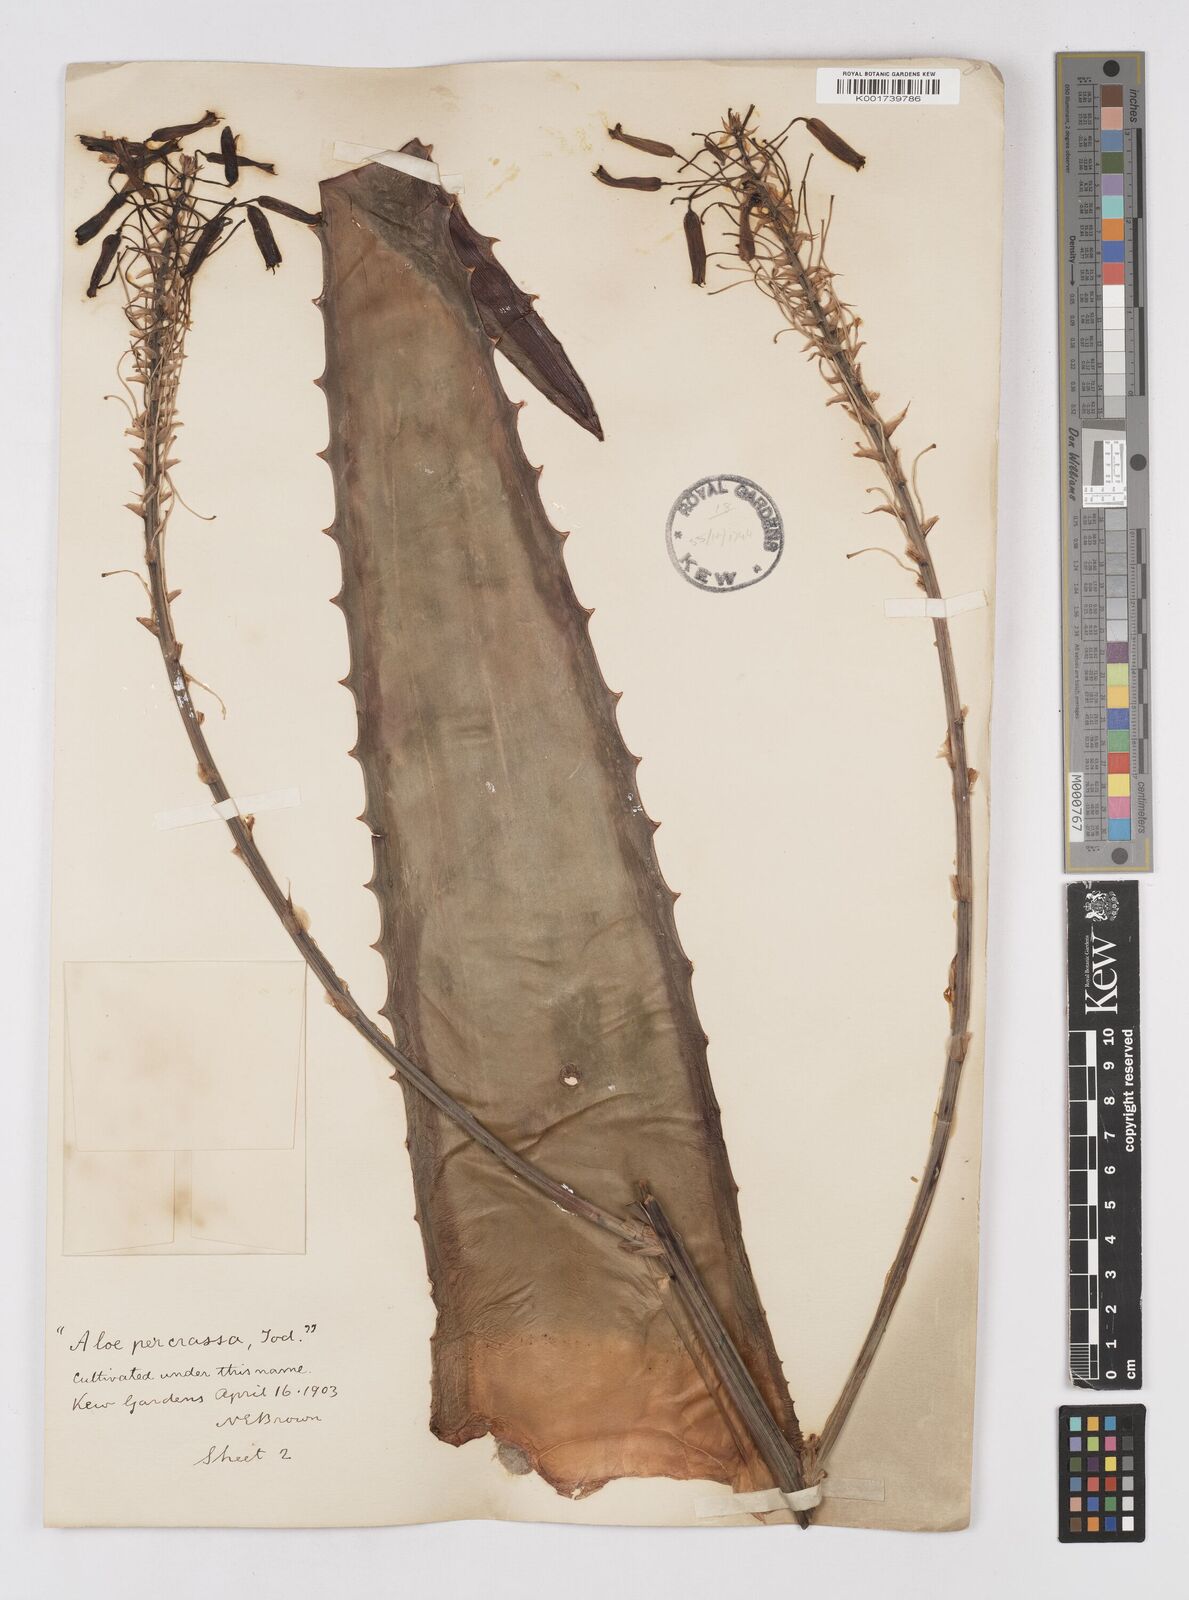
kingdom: Plantae
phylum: Tracheophyta
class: Liliopsida
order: Asparagales
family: Asphodelaceae
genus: Aloe
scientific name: Aloe percrassa
